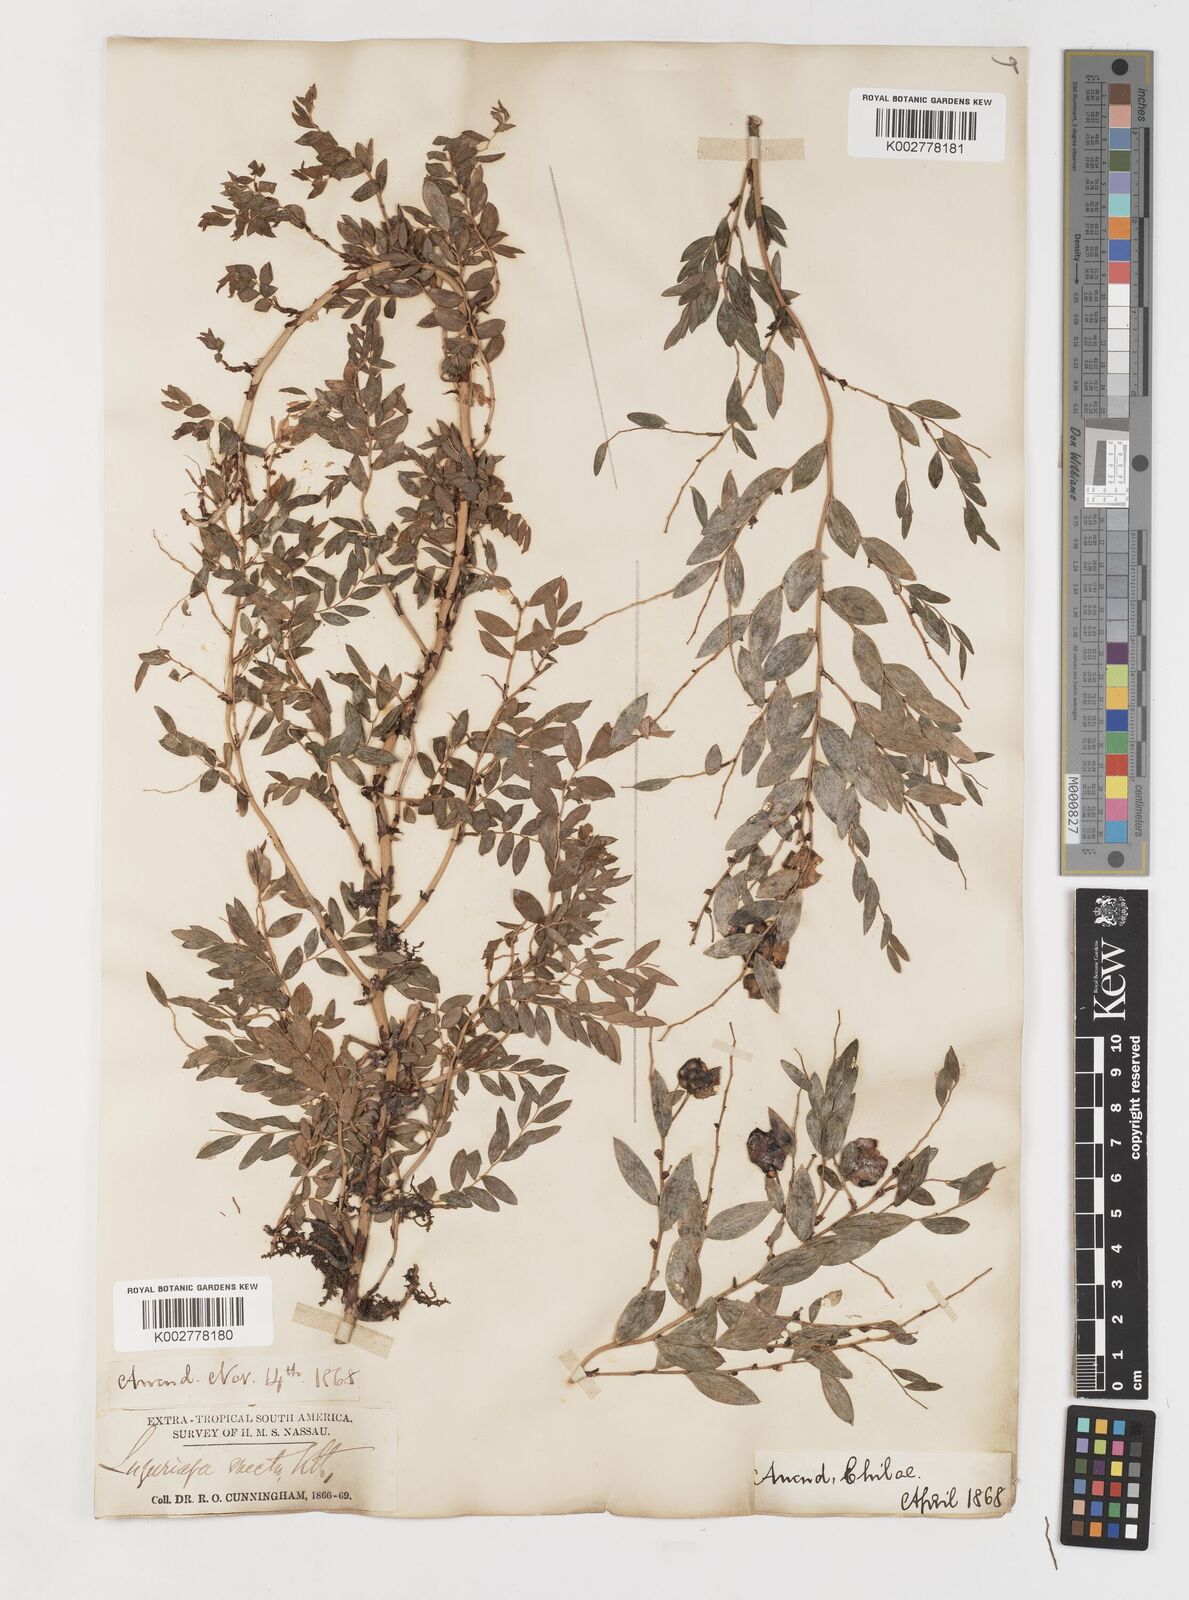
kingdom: Plantae
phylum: Tracheophyta
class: Liliopsida
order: Liliales
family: Alstroemeriaceae
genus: Luzuriaga
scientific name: Luzuriaga polyphylla
